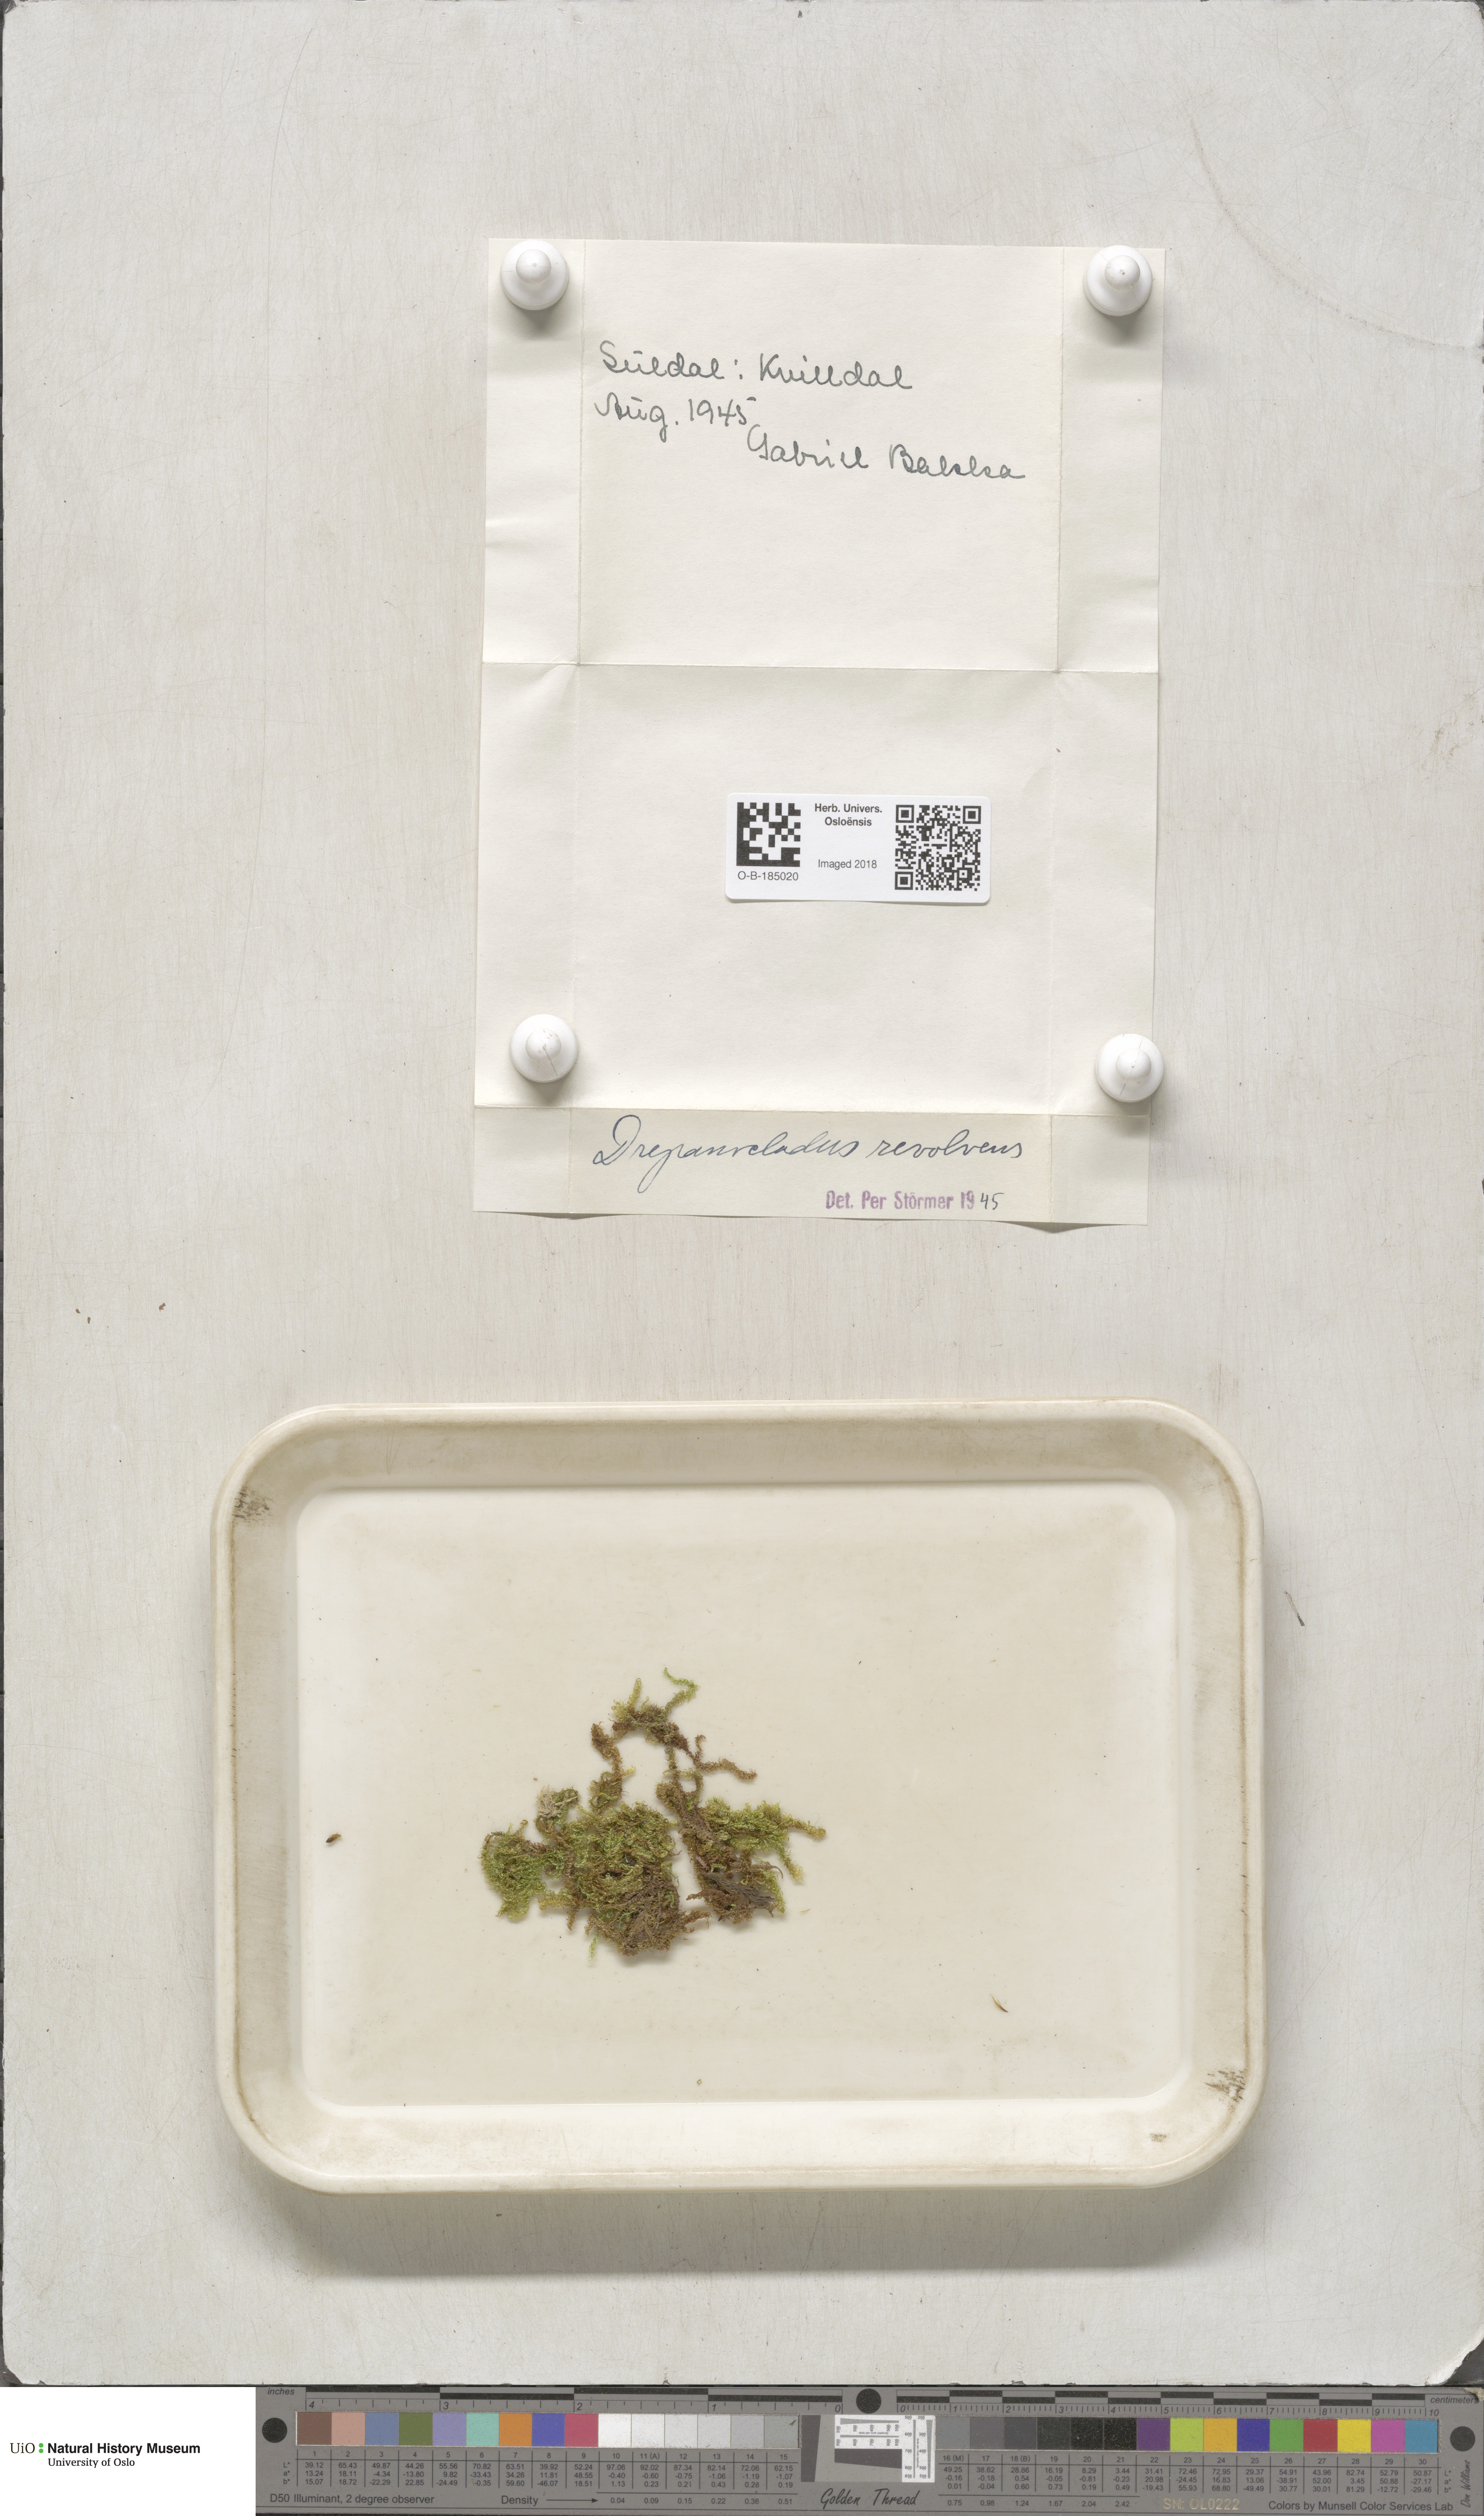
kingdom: Plantae
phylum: Bryophyta
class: Bryopsida
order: Hypnales
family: Scorpidiaceae
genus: Scorpidium
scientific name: Scorpidium revolvens
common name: Rusty hook moss
